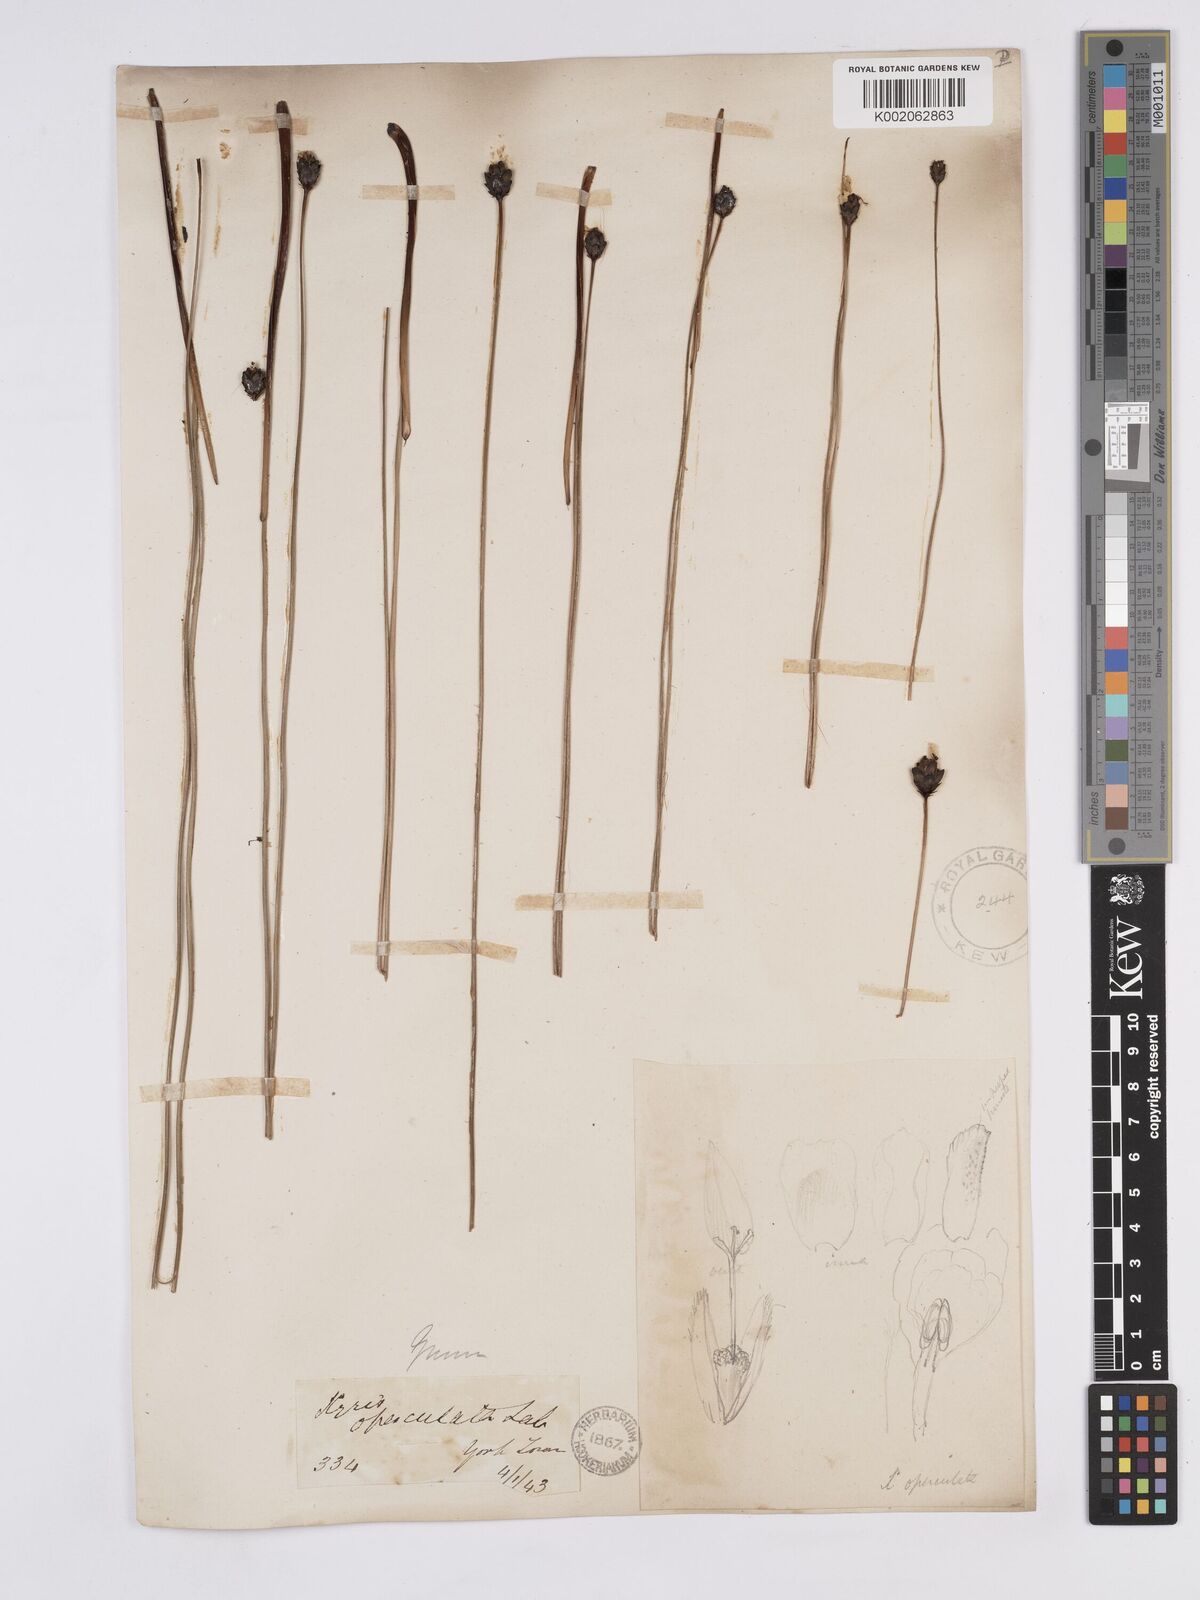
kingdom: Plantae
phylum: Tracheophyta
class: Liliopsida
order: Poales
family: Xyridaceae
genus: Xyris
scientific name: Xyris operculata
